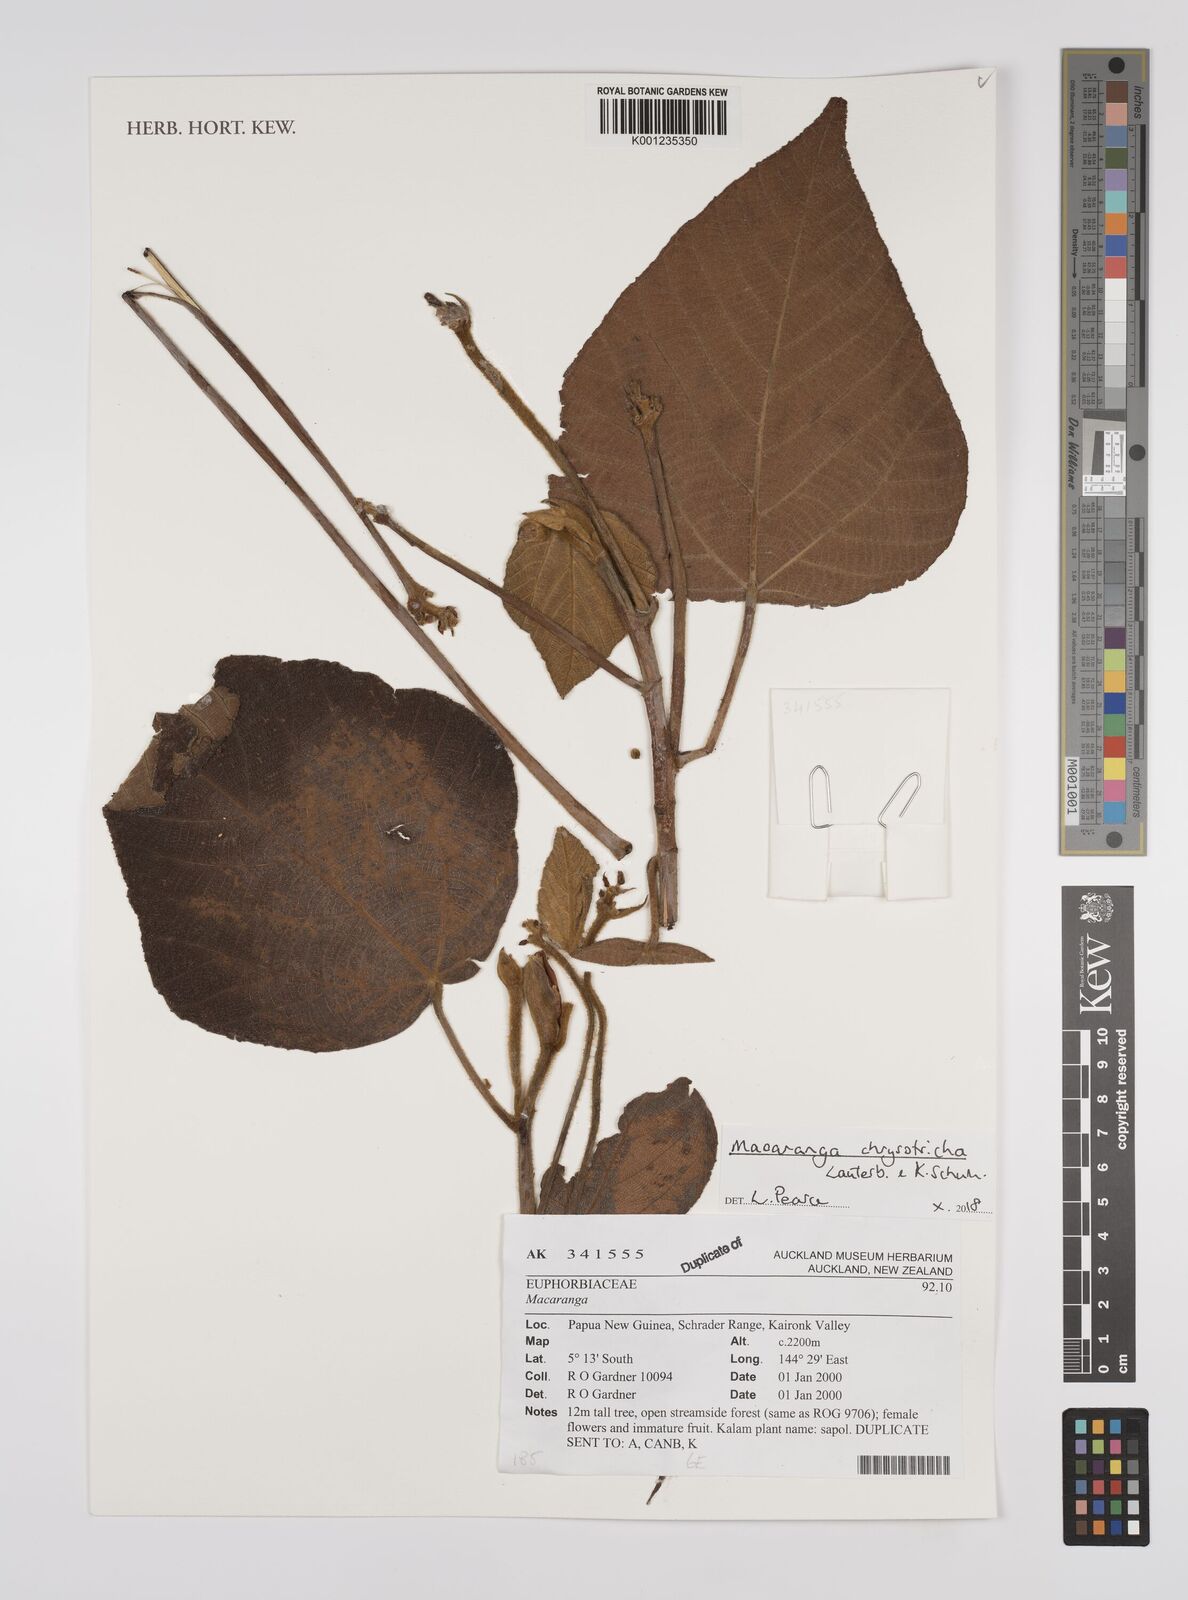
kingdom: Plantae
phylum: Tracheophyta
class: Magnoliopsida
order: Malpighiales
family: Euphorbiaceae
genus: Macaranga
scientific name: Macaranga chrysotricha
